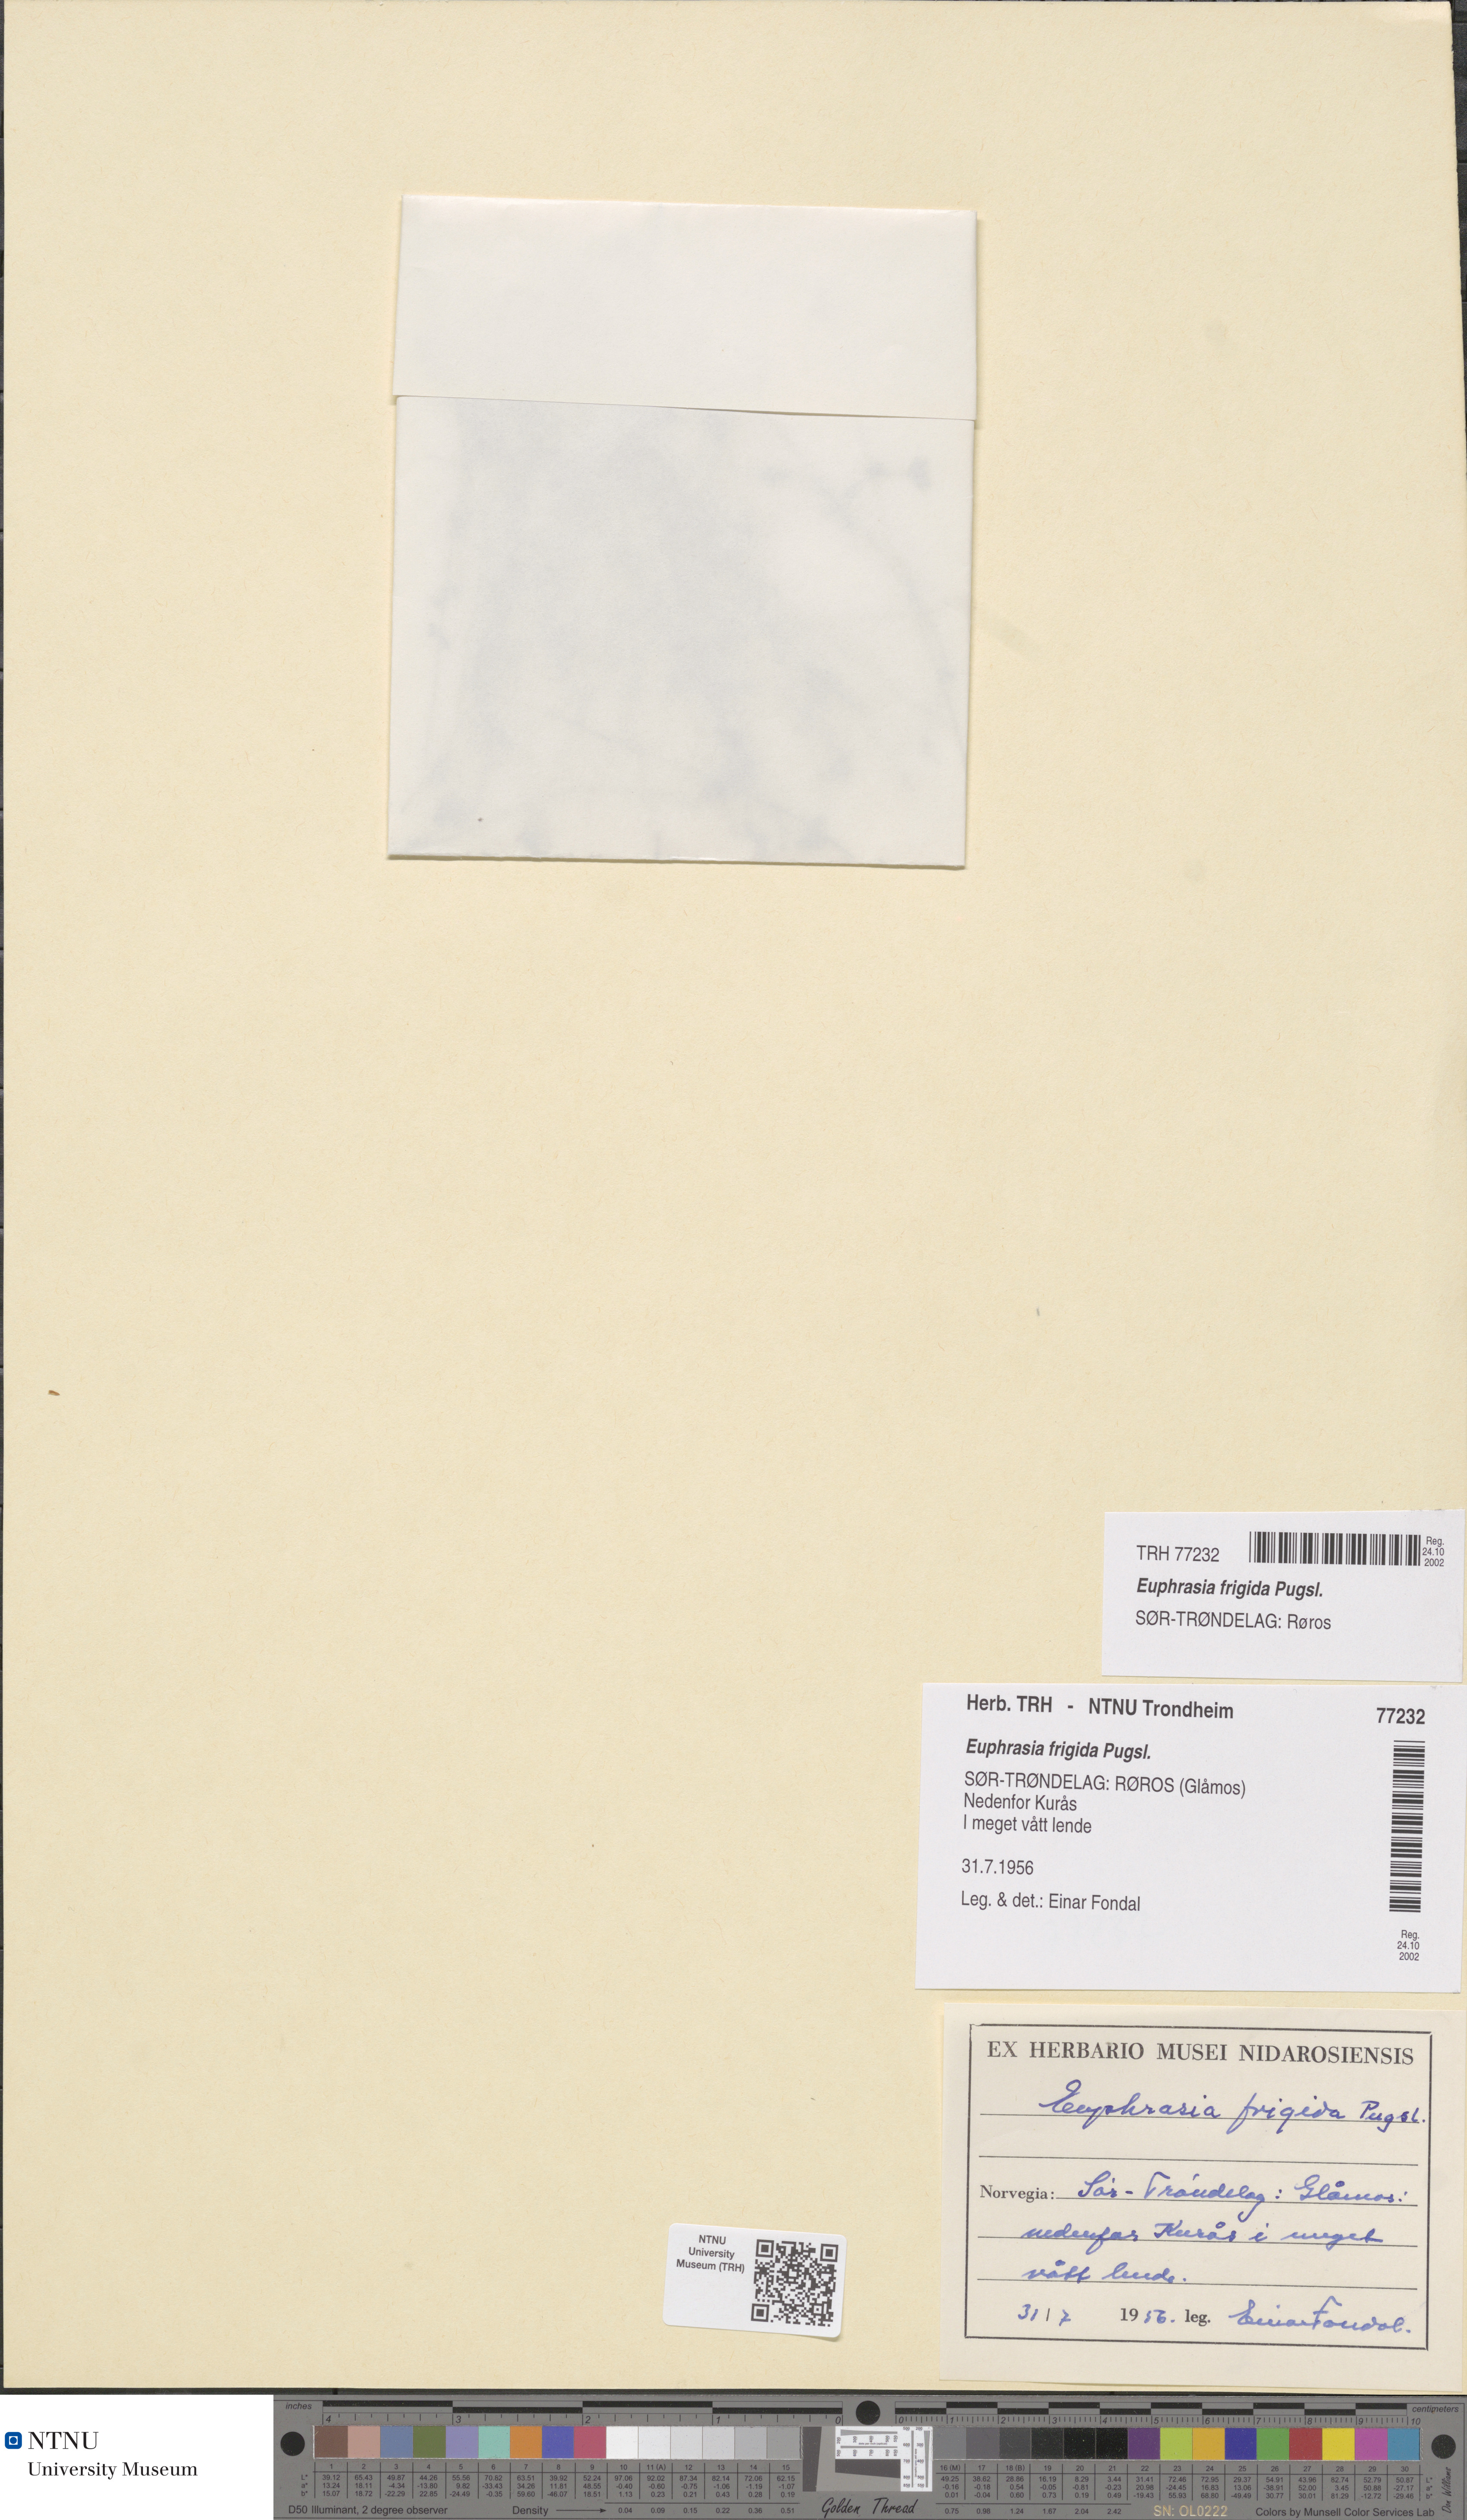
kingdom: Plantae
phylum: Tracheophyta
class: Magnoliopsida
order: Lamiales
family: Orobanchaceae
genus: Euphrasia
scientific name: Euphrasia wettsteinii
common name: Wettstein's eyebright
